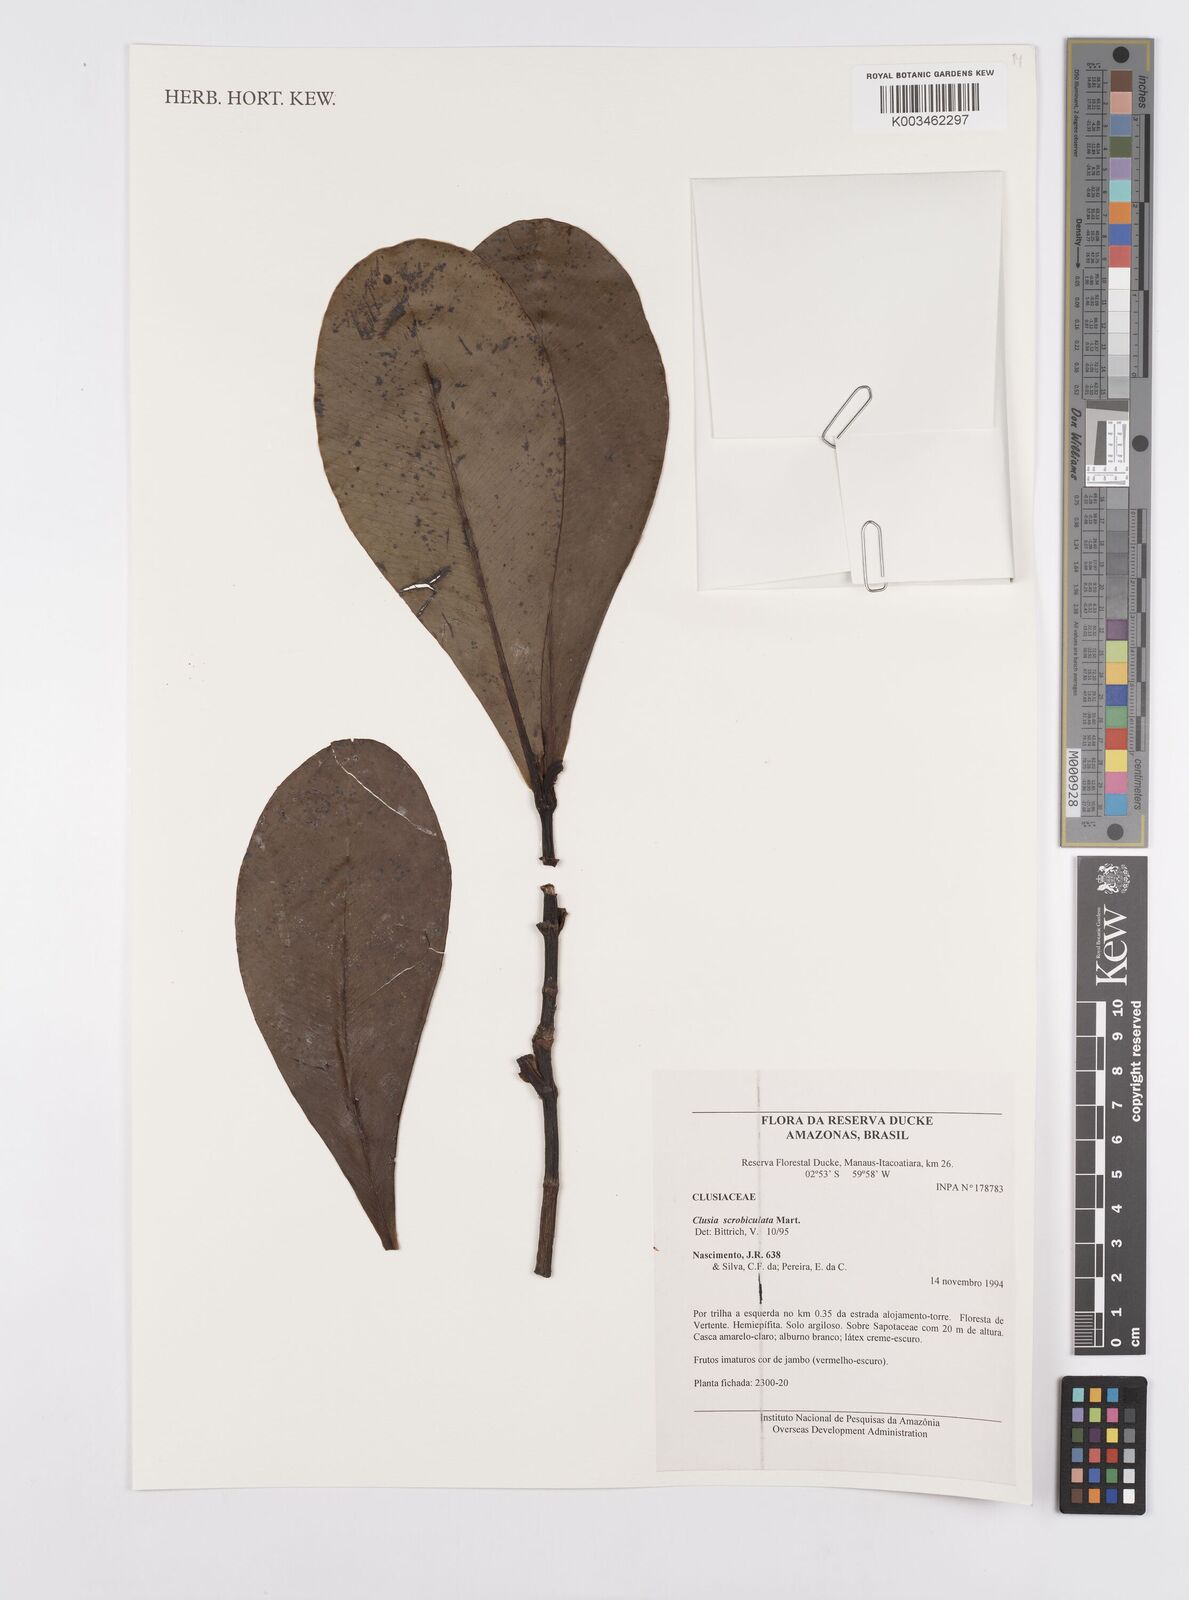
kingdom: Plantae
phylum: Tracheophyta
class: Magnoliopsida
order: Malpighiales
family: Clusiaceae
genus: Clusia
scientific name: Clusia scrobiculata
